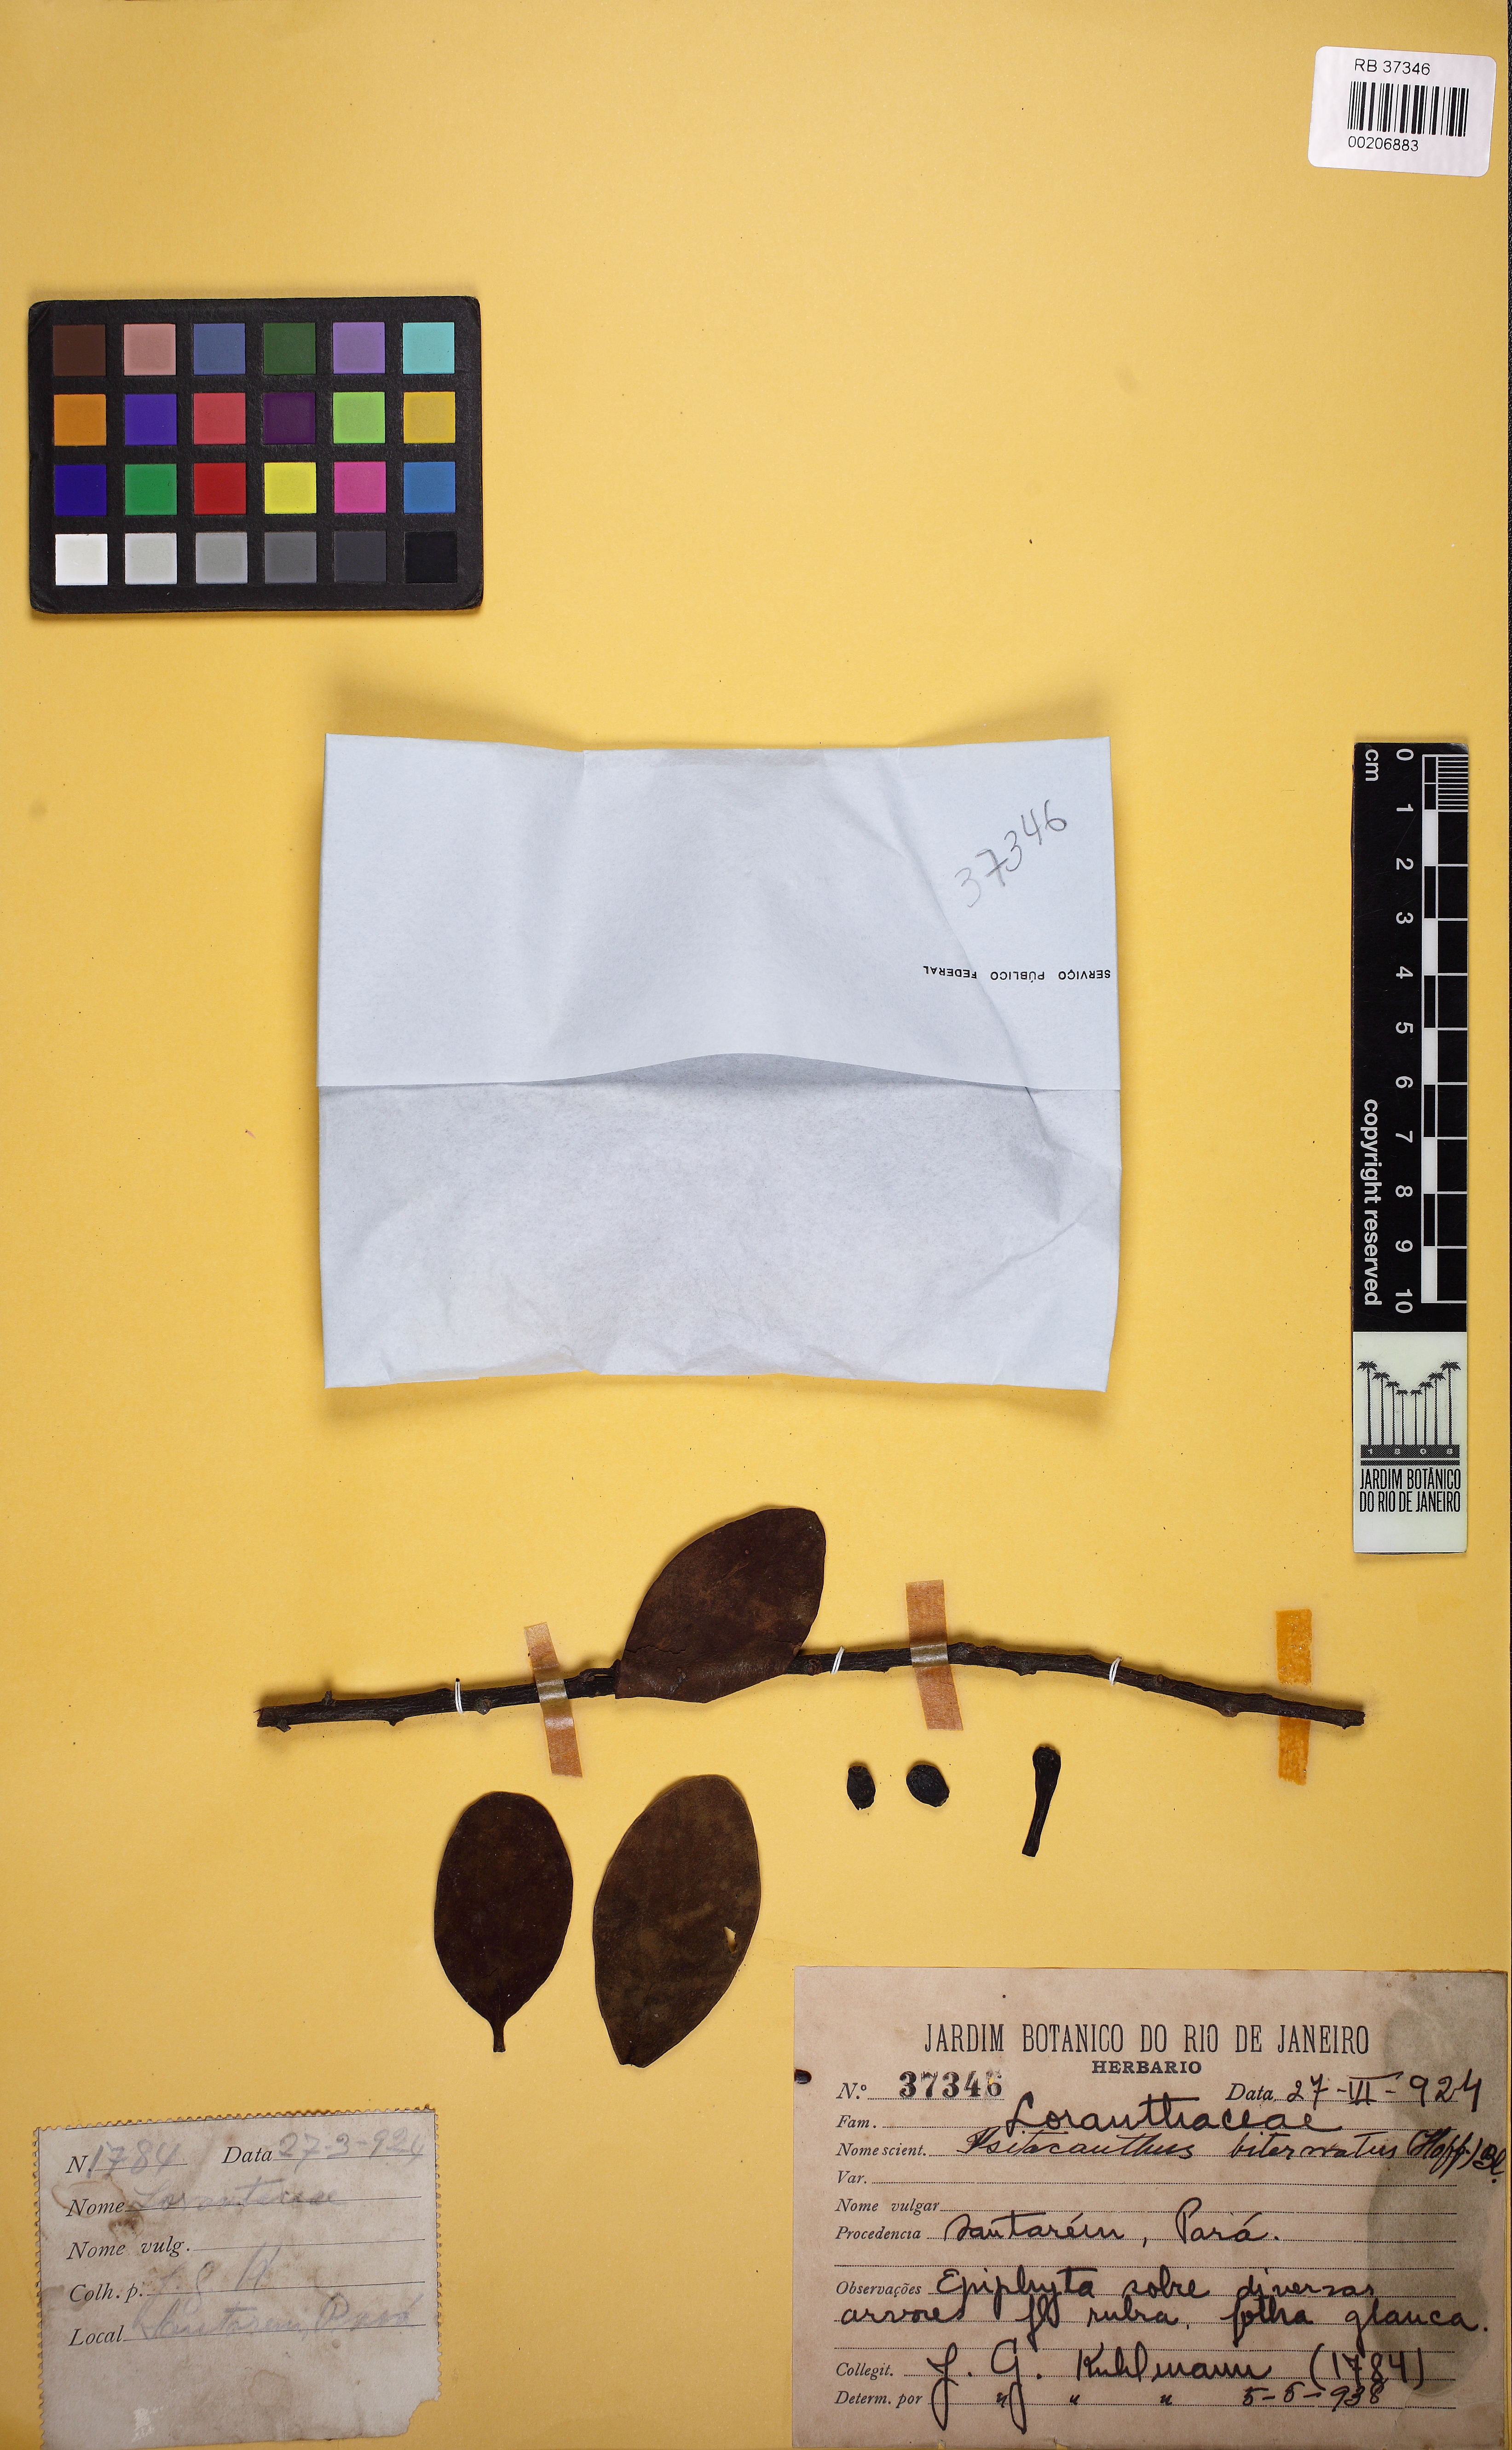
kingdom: Plantae
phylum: Tracheophyta
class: Magnoliopsida
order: Santalales
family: Loranthaceae
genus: Psittacanthus
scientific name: Psittacanthus biternatus
